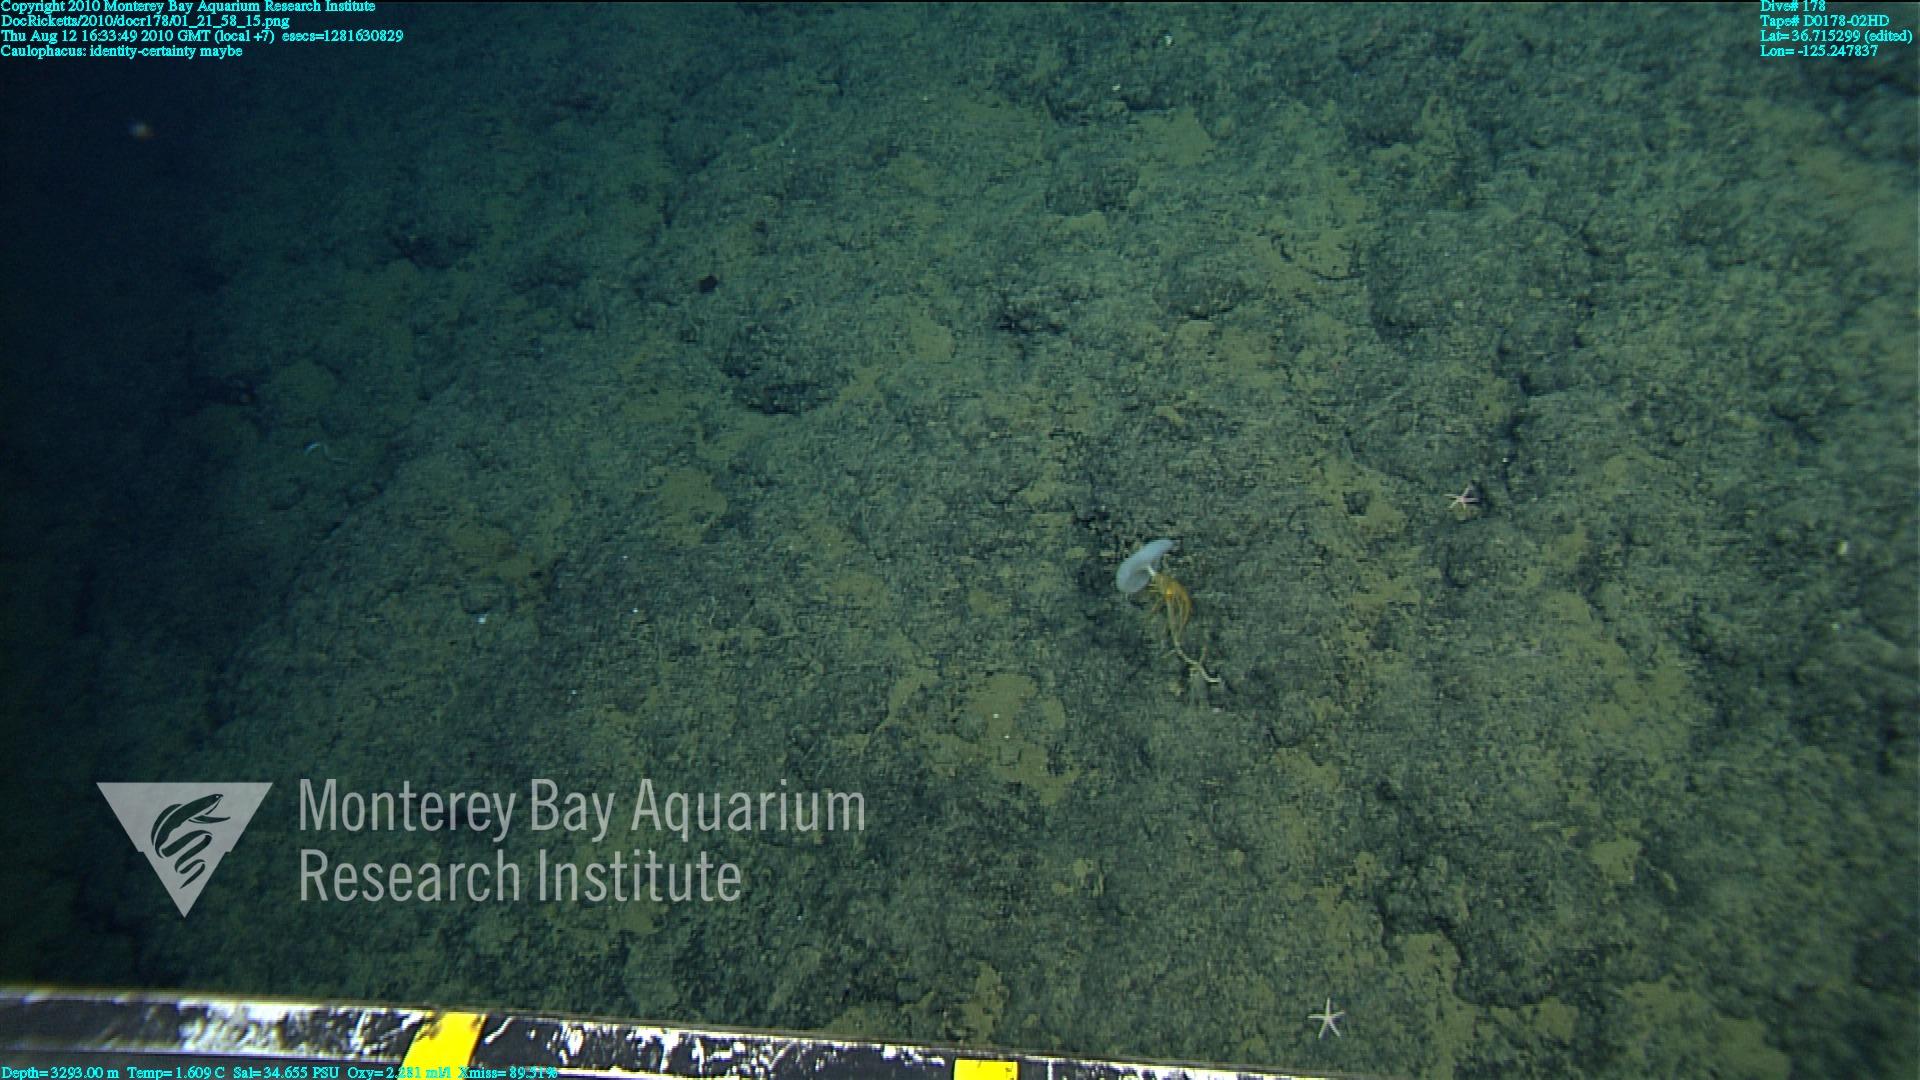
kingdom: Animalia
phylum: Porifera
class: Hexactinellida
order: Lyssacinosida
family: Rossellidae
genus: Caulophacus
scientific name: Caulophacus
